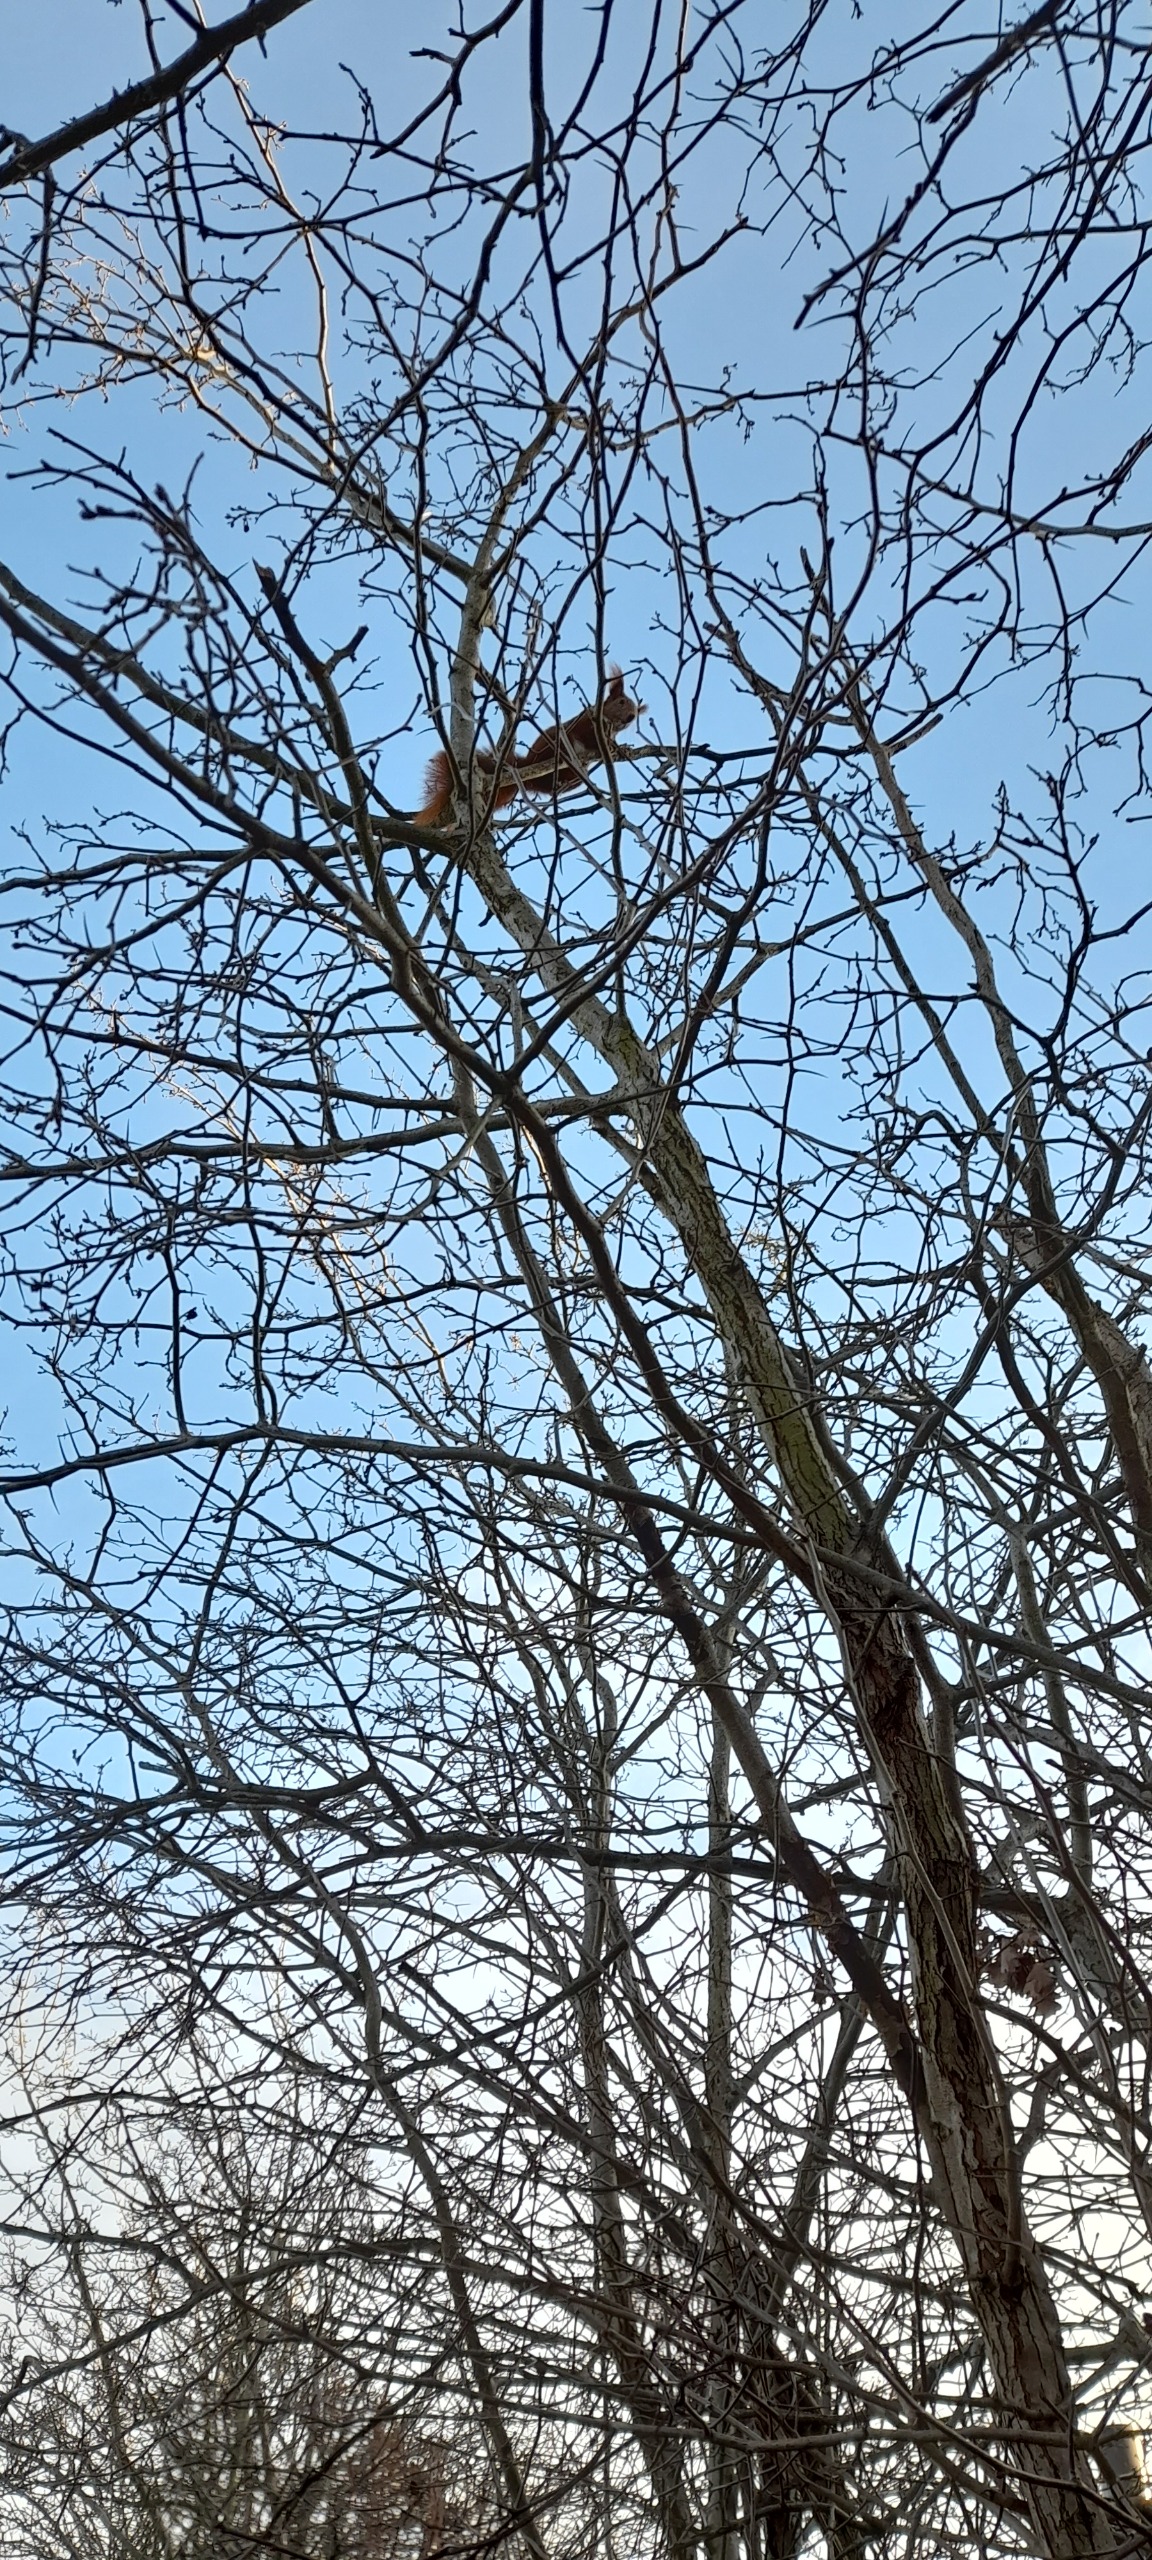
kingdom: Animalia
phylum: Chordata
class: Mammalia
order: Rodentia
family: Sciuridae
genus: Sciurus
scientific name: Sciurus vulgaris
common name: Egern
